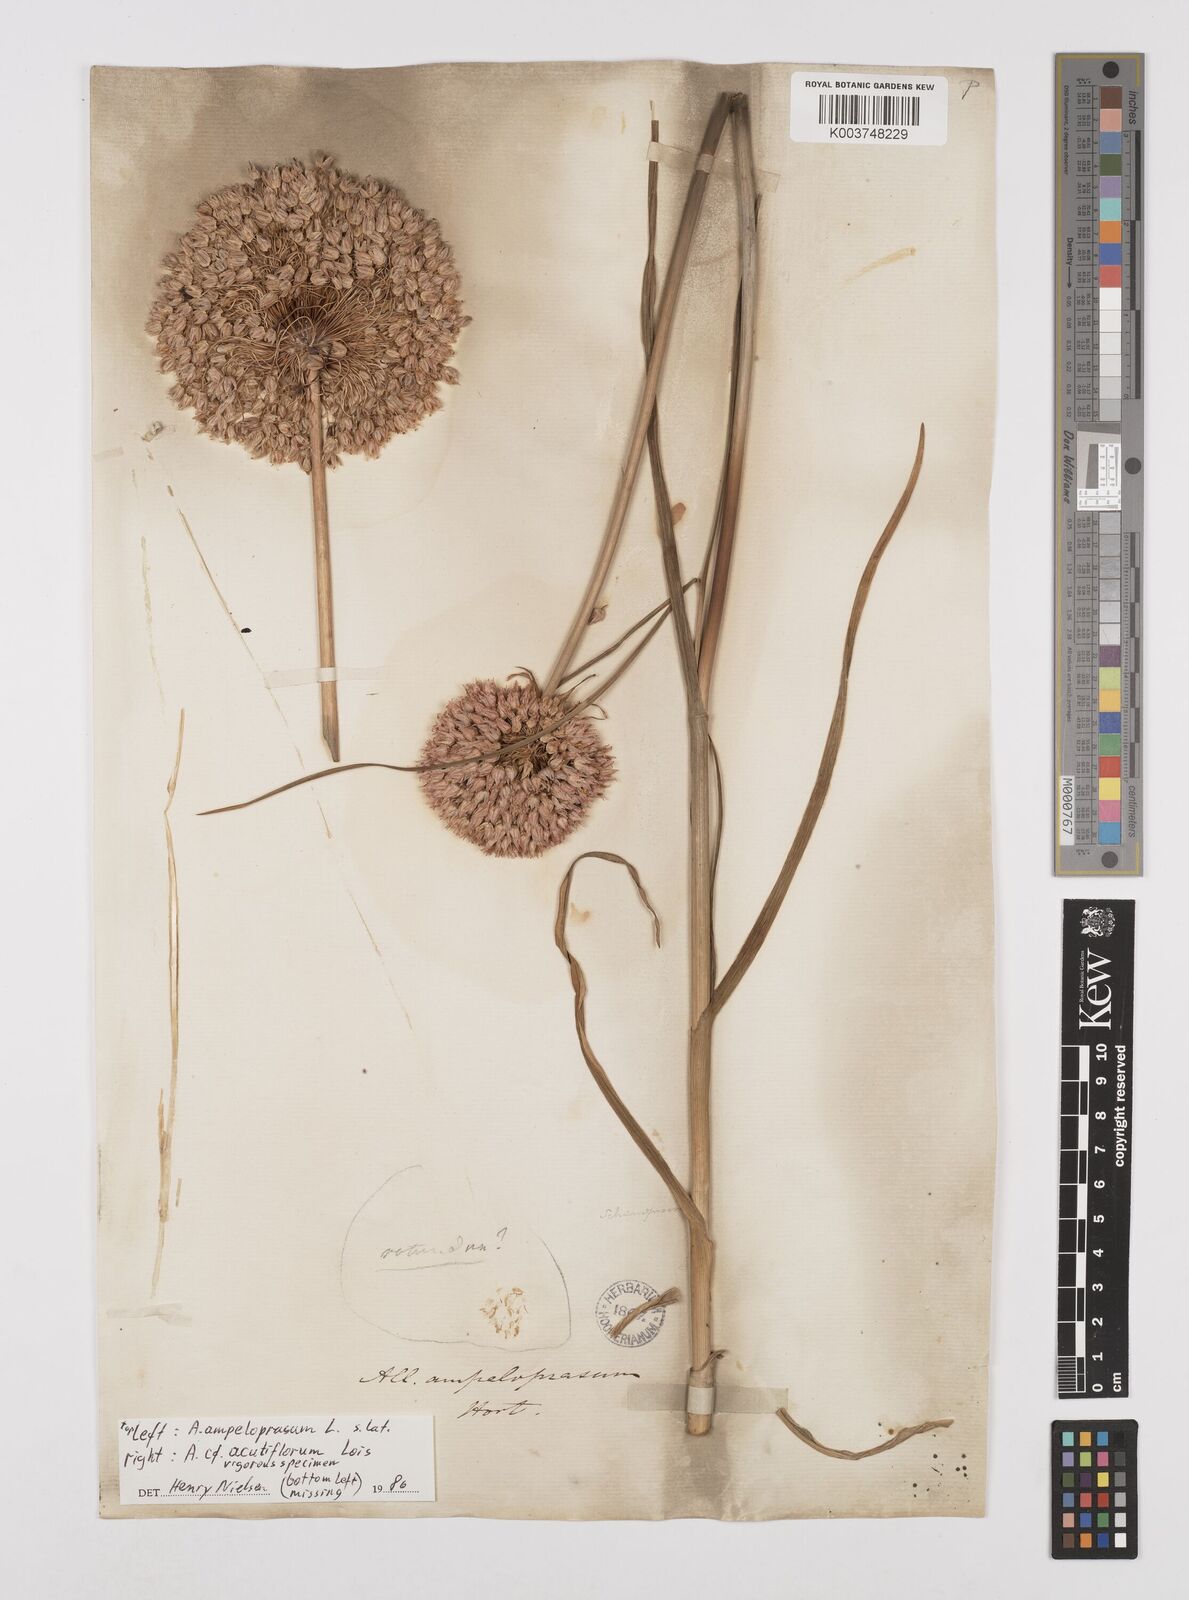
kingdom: Plantae
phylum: Tracheophyta
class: Liliopsida
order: Asparagales
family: Amaryllidaceae
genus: Allium
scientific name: Allium acutiflorum
